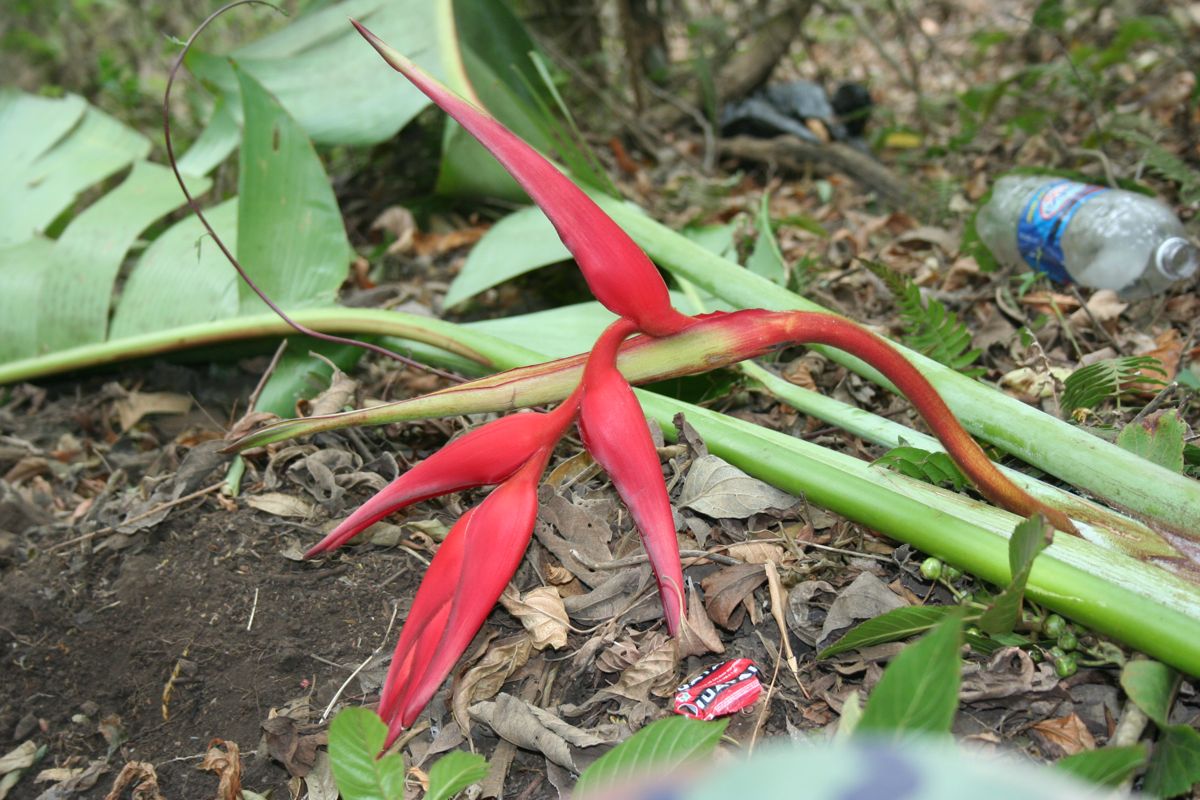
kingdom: Plantae
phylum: Tracheophyta
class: Liliopsida
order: Zingiberales
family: Heliconiaceae
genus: Heliconia
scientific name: Heliconia collinsiana
